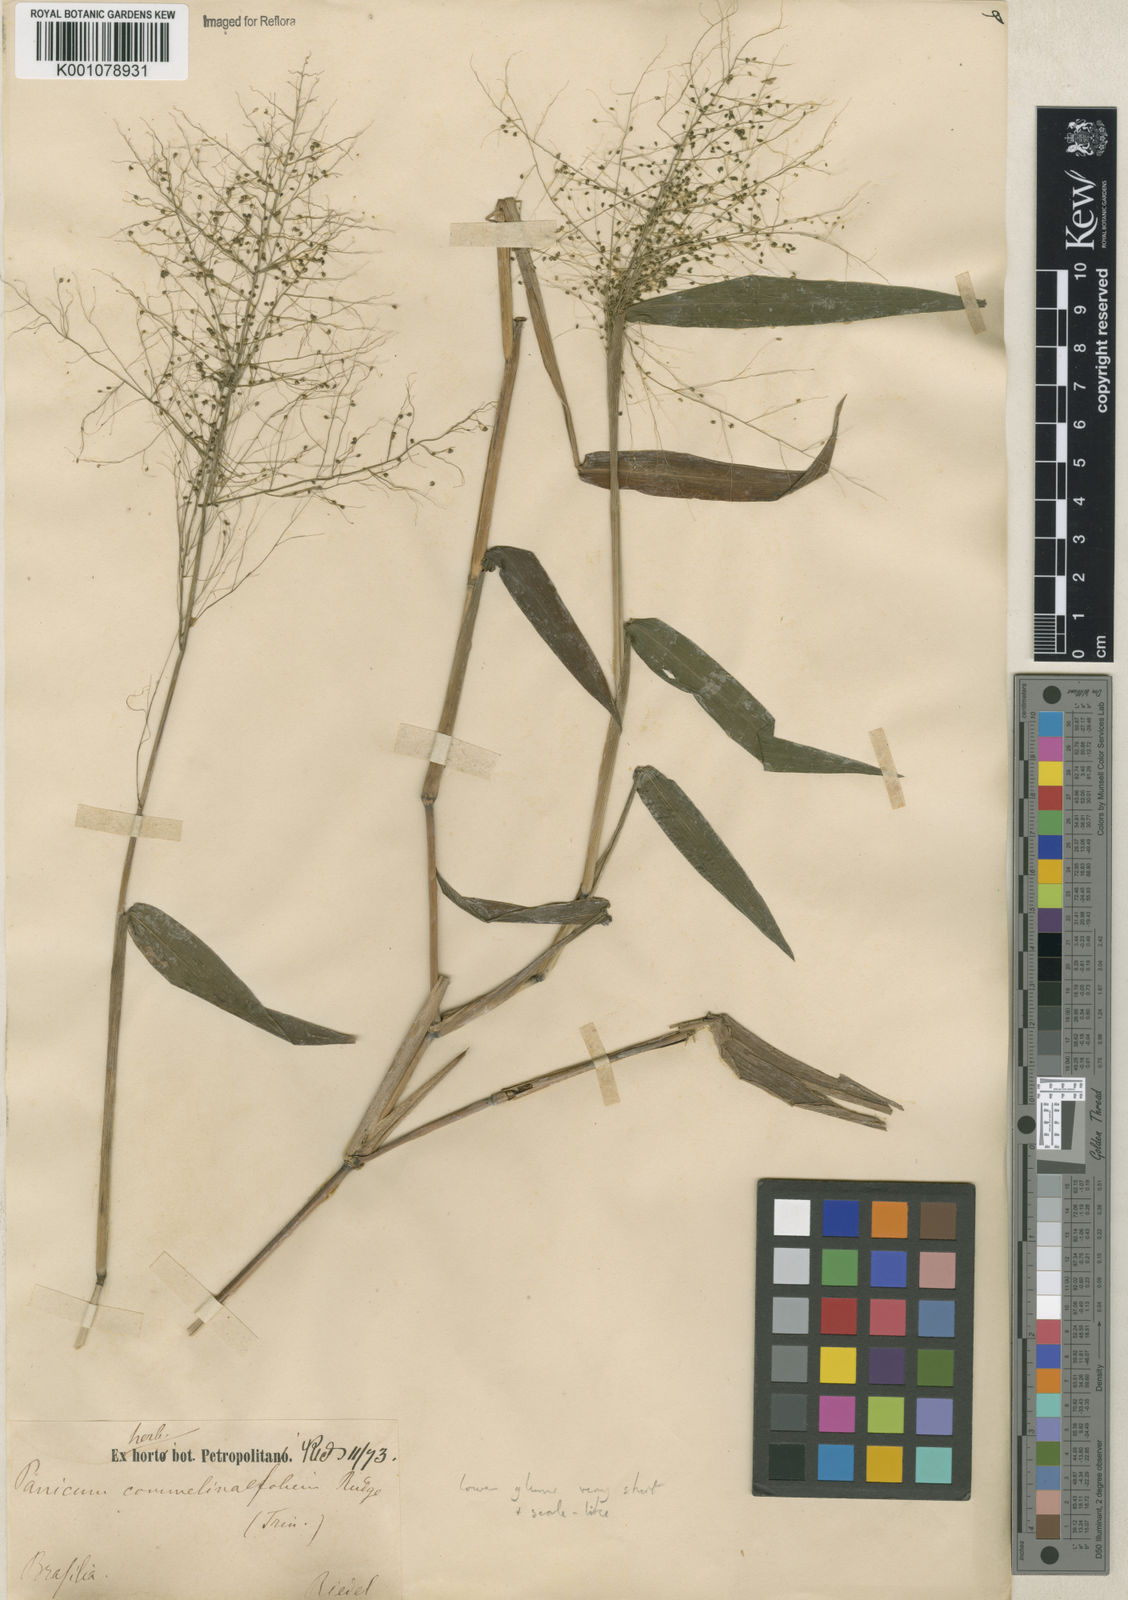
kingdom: Plantae
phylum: Tracheophyta
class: Liliopsida
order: Poales
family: Poaceae
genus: Panicum
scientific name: Panicum
